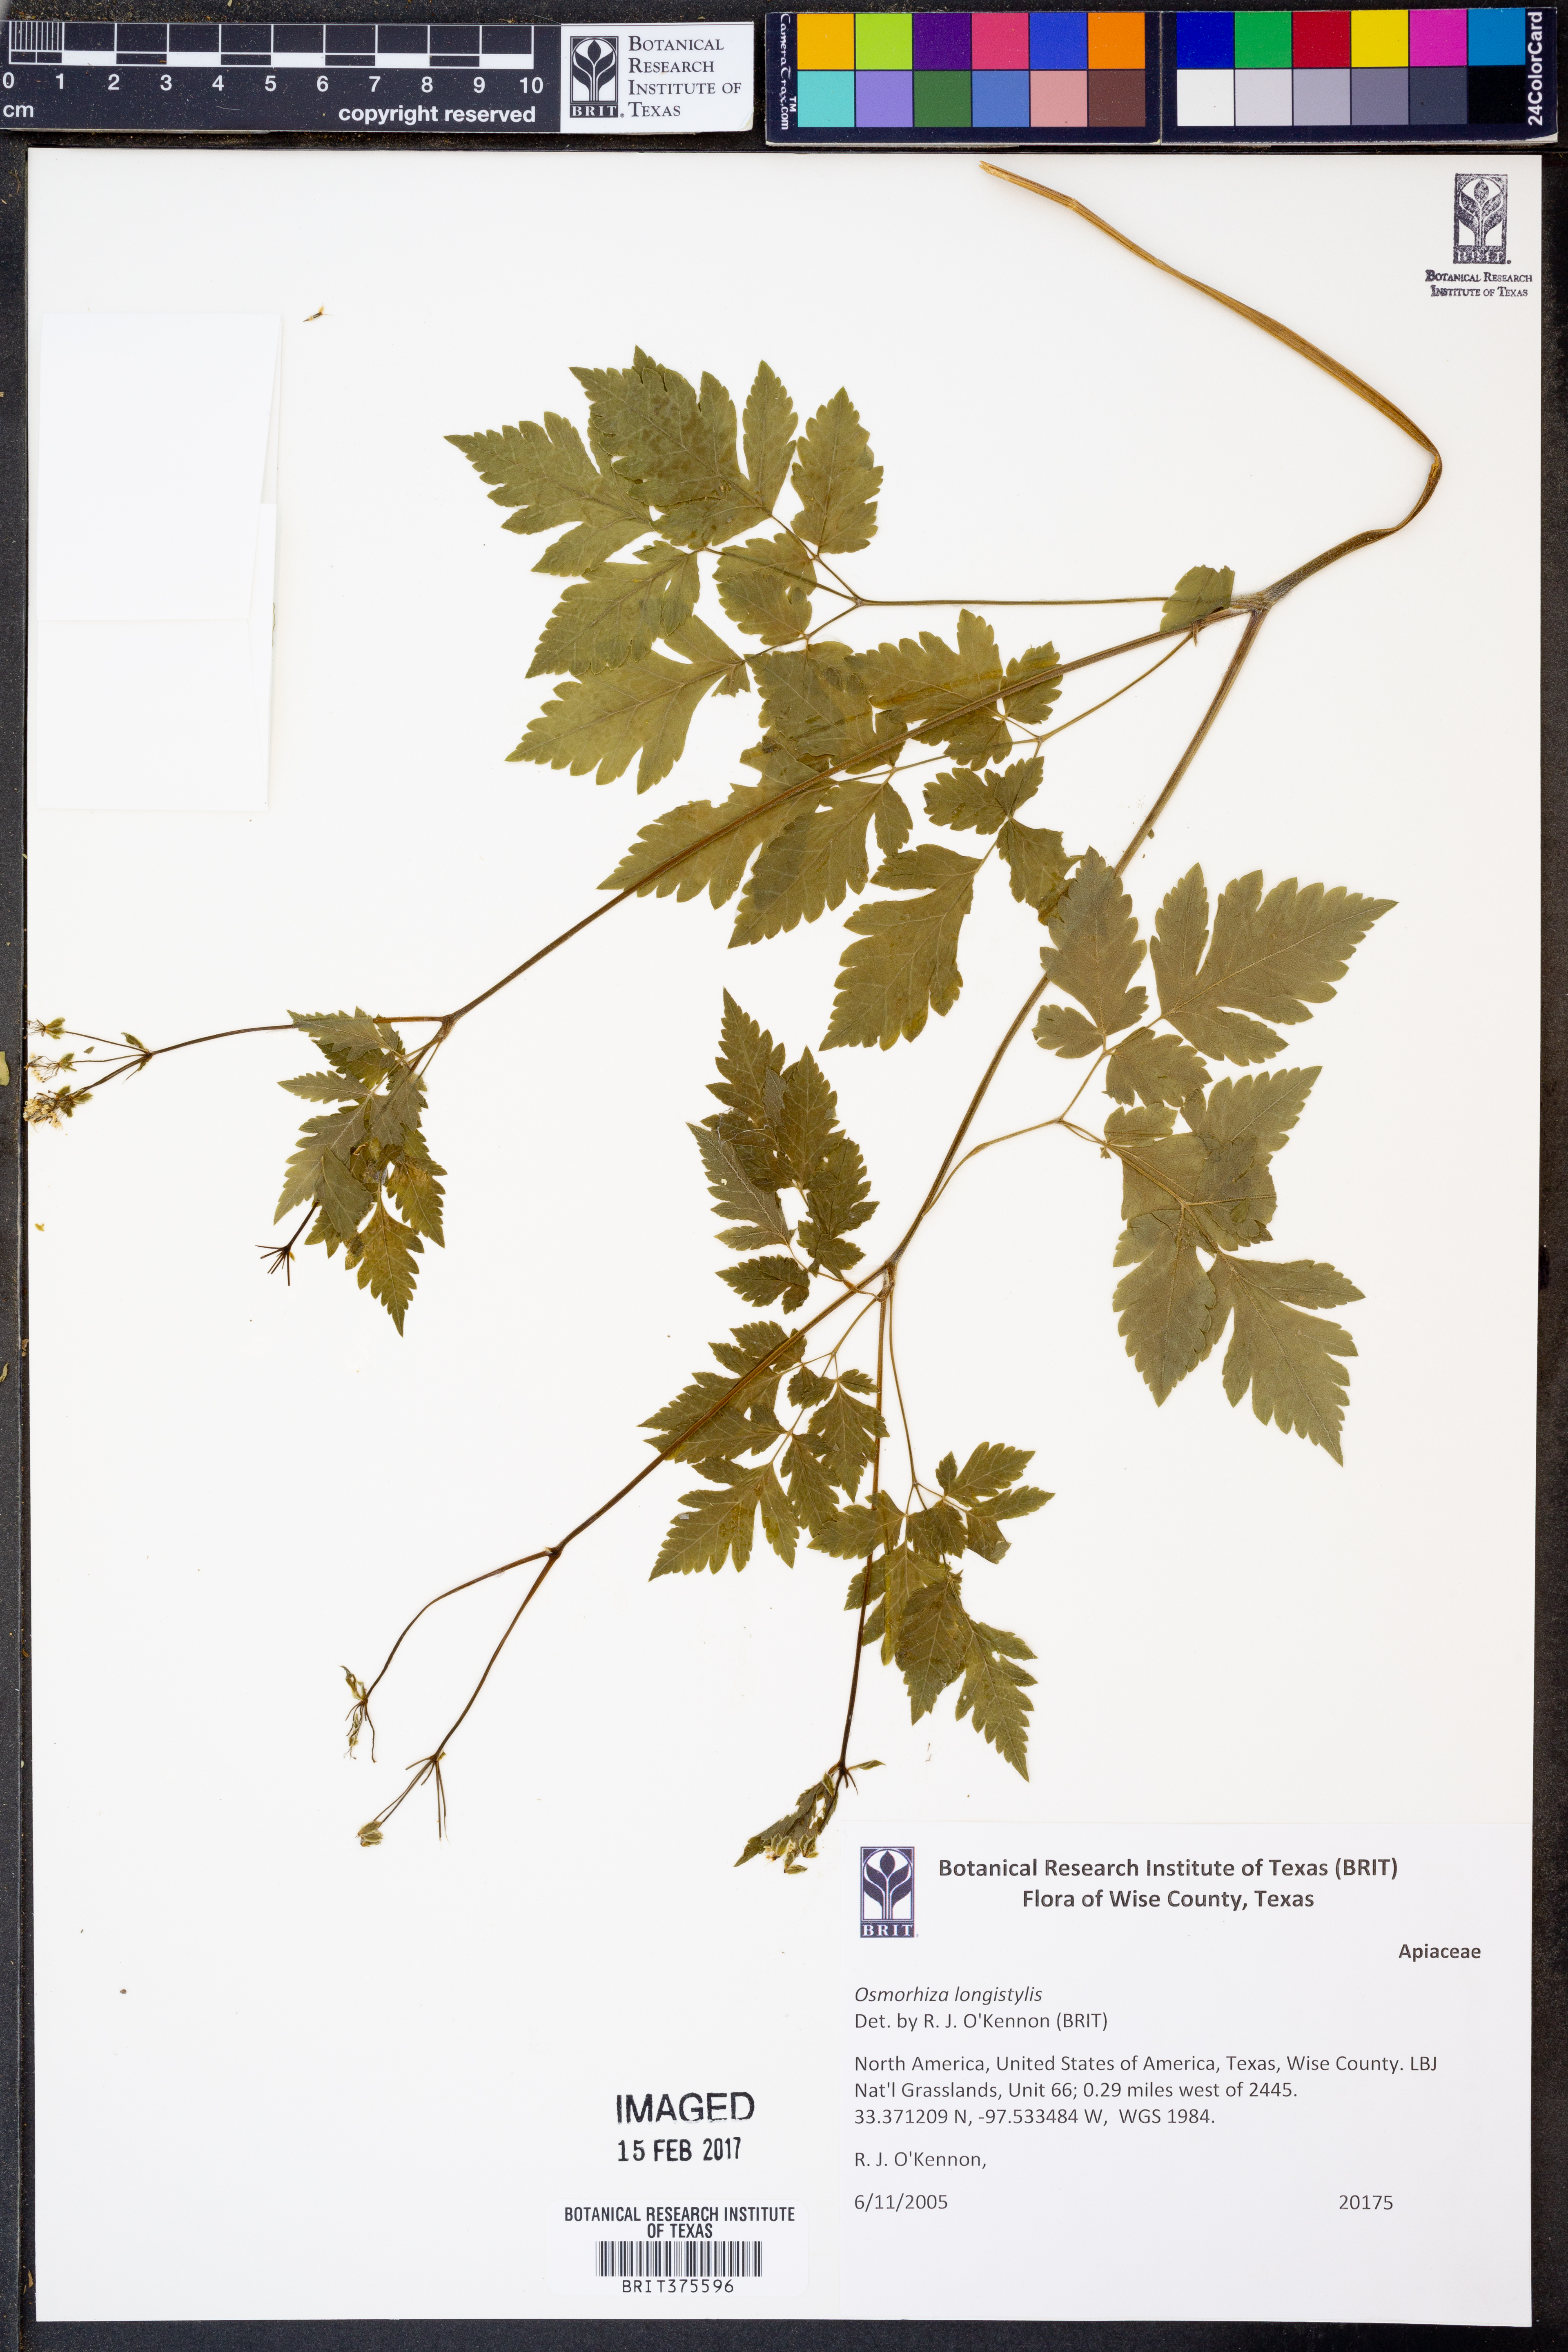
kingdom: Plantae
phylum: Tracheophyta
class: Magnoliopsida
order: Apiales
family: Apiaceae
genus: Osmorhiza
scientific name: Osmorhiza longistylis
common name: Smooth sweet cicely
